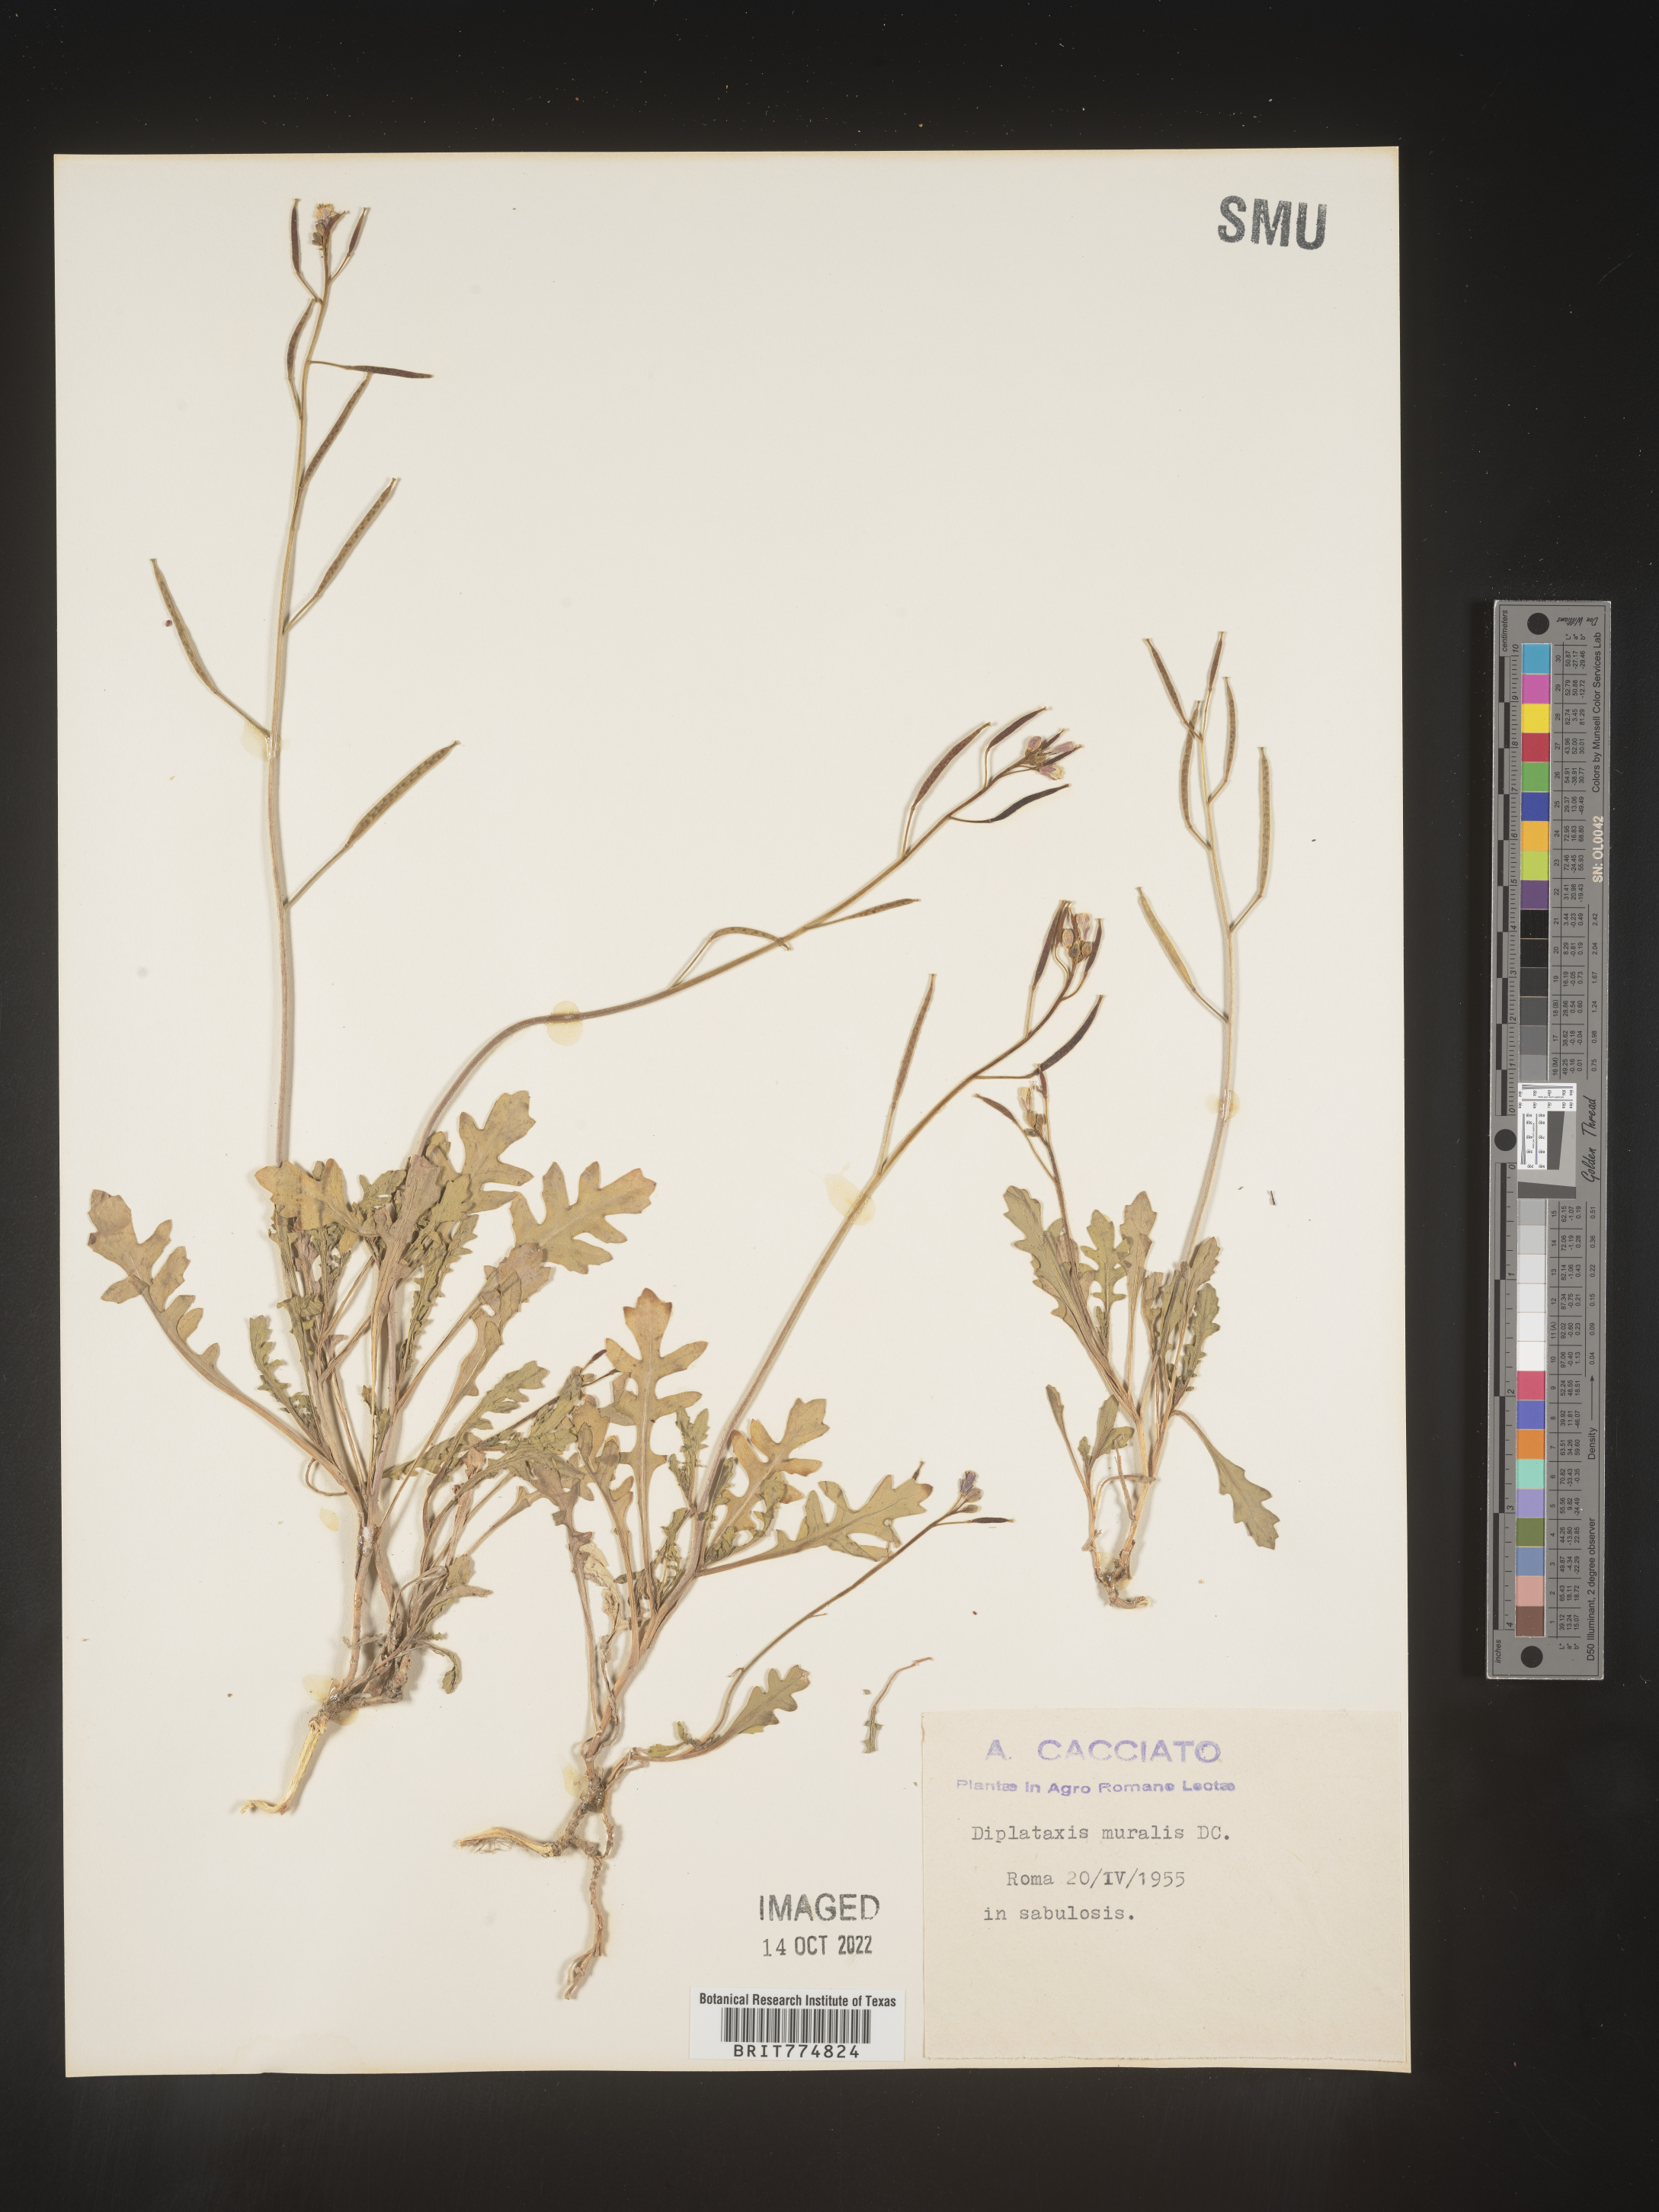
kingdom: Plantae
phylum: Tracheophyta
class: Magnoliopsida
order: Brassicales
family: Brassicaceae
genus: Diplotaxis
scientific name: Diplotaxis
